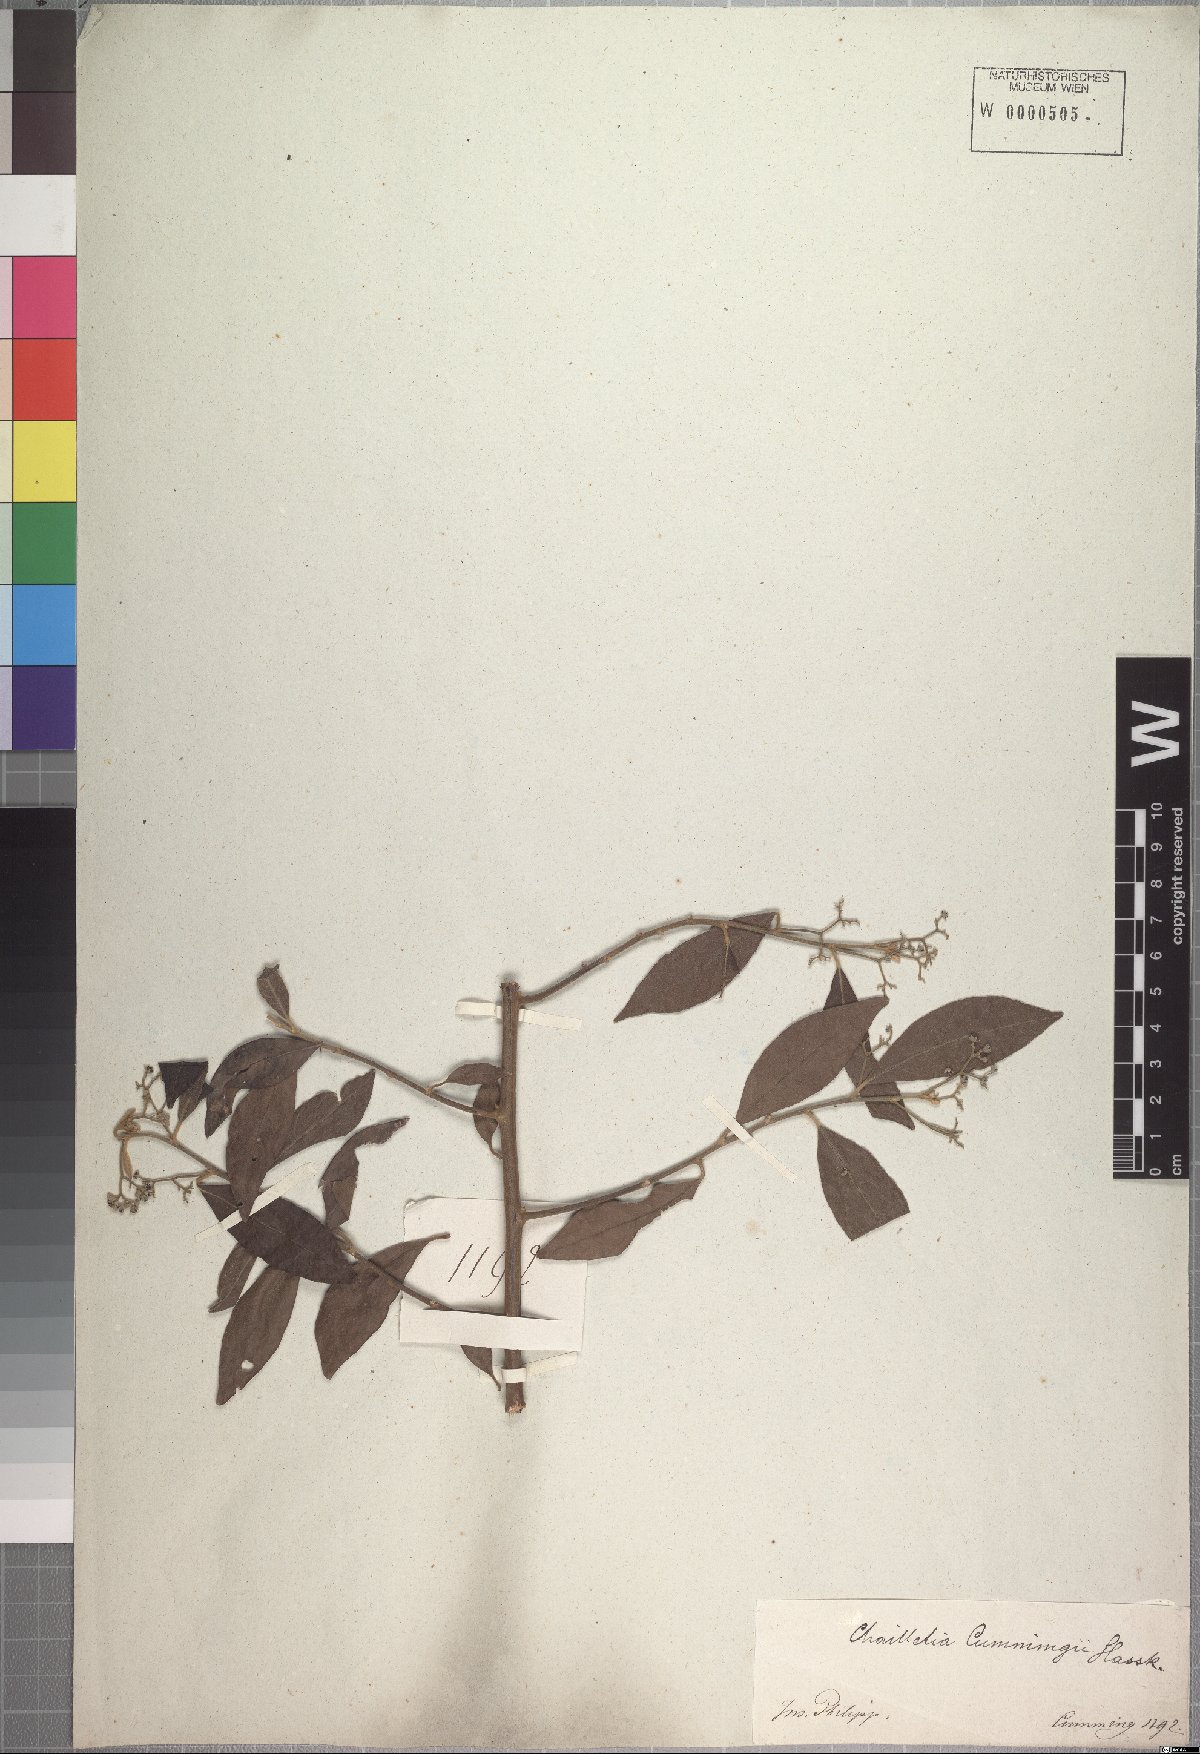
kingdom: Plantae
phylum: Tracheophyta
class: Magnoliopsida
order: Malpighiales
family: Dichapetalaceae
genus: Dichapetalum
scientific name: Dichapetalum timoriense
